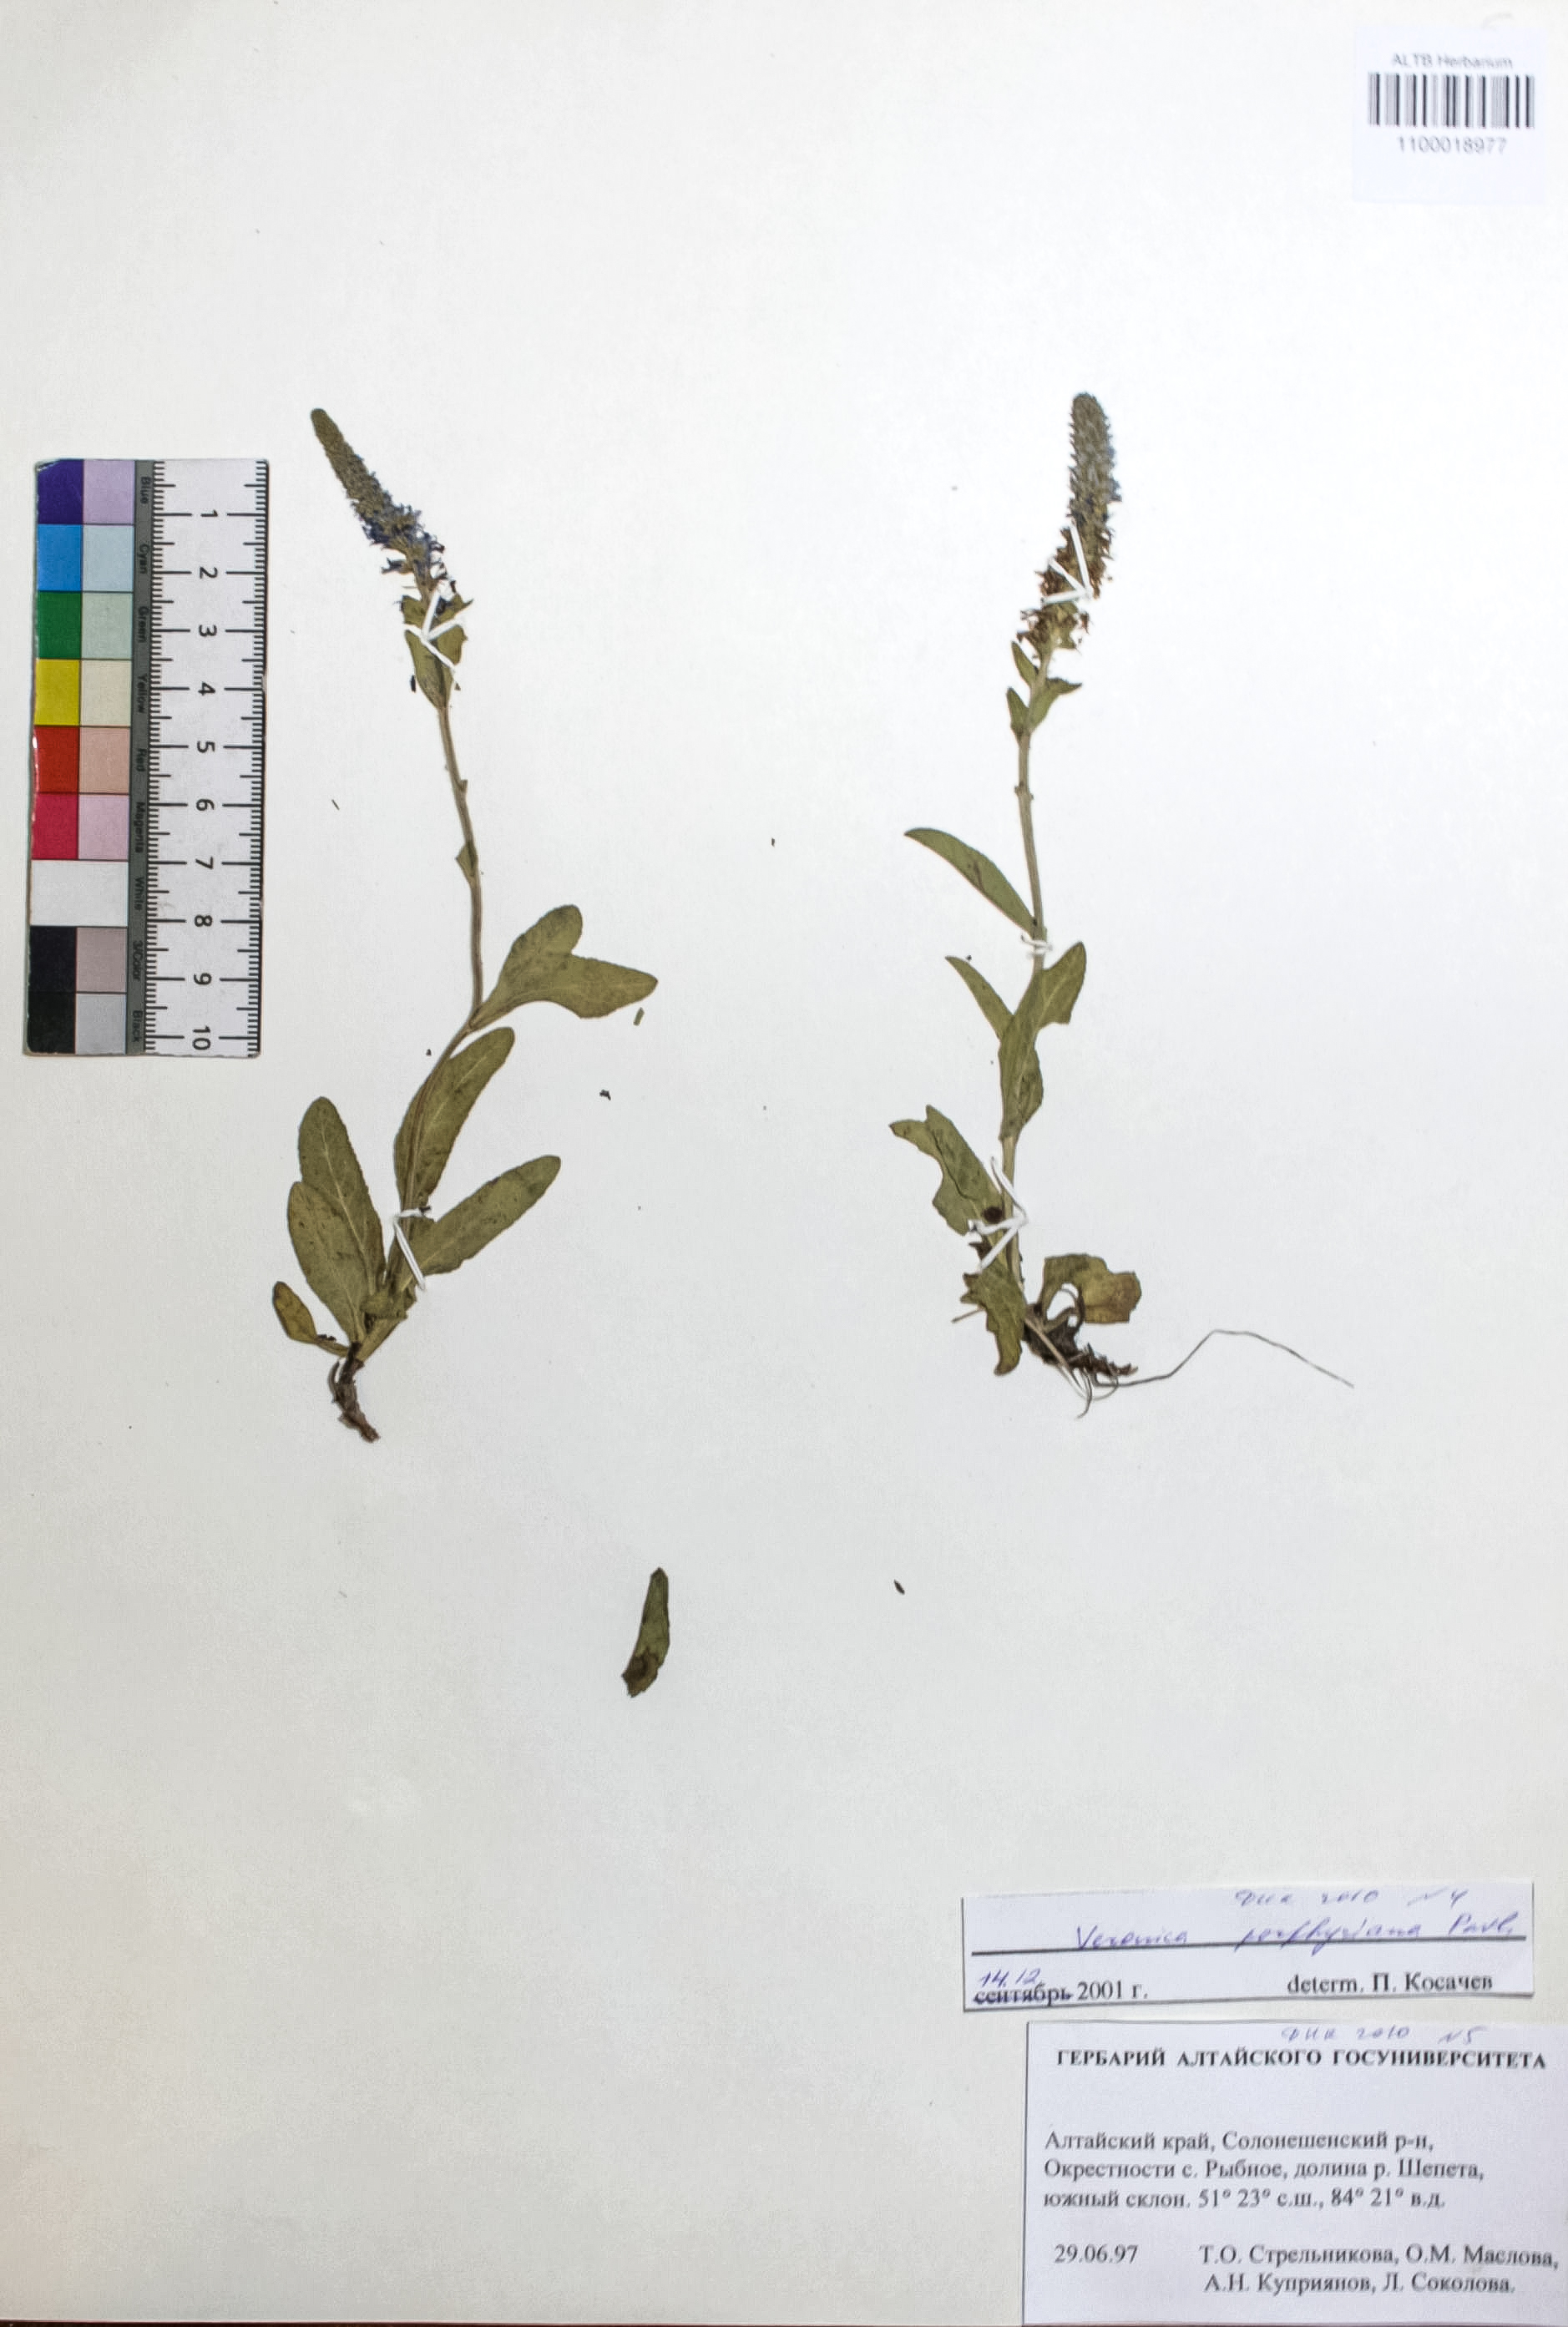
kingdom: Plantae
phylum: Tracheophyta
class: Magnoliopsida
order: Lamiales
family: Plantaginaceae
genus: Veronica
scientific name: Veronica porphyriana
